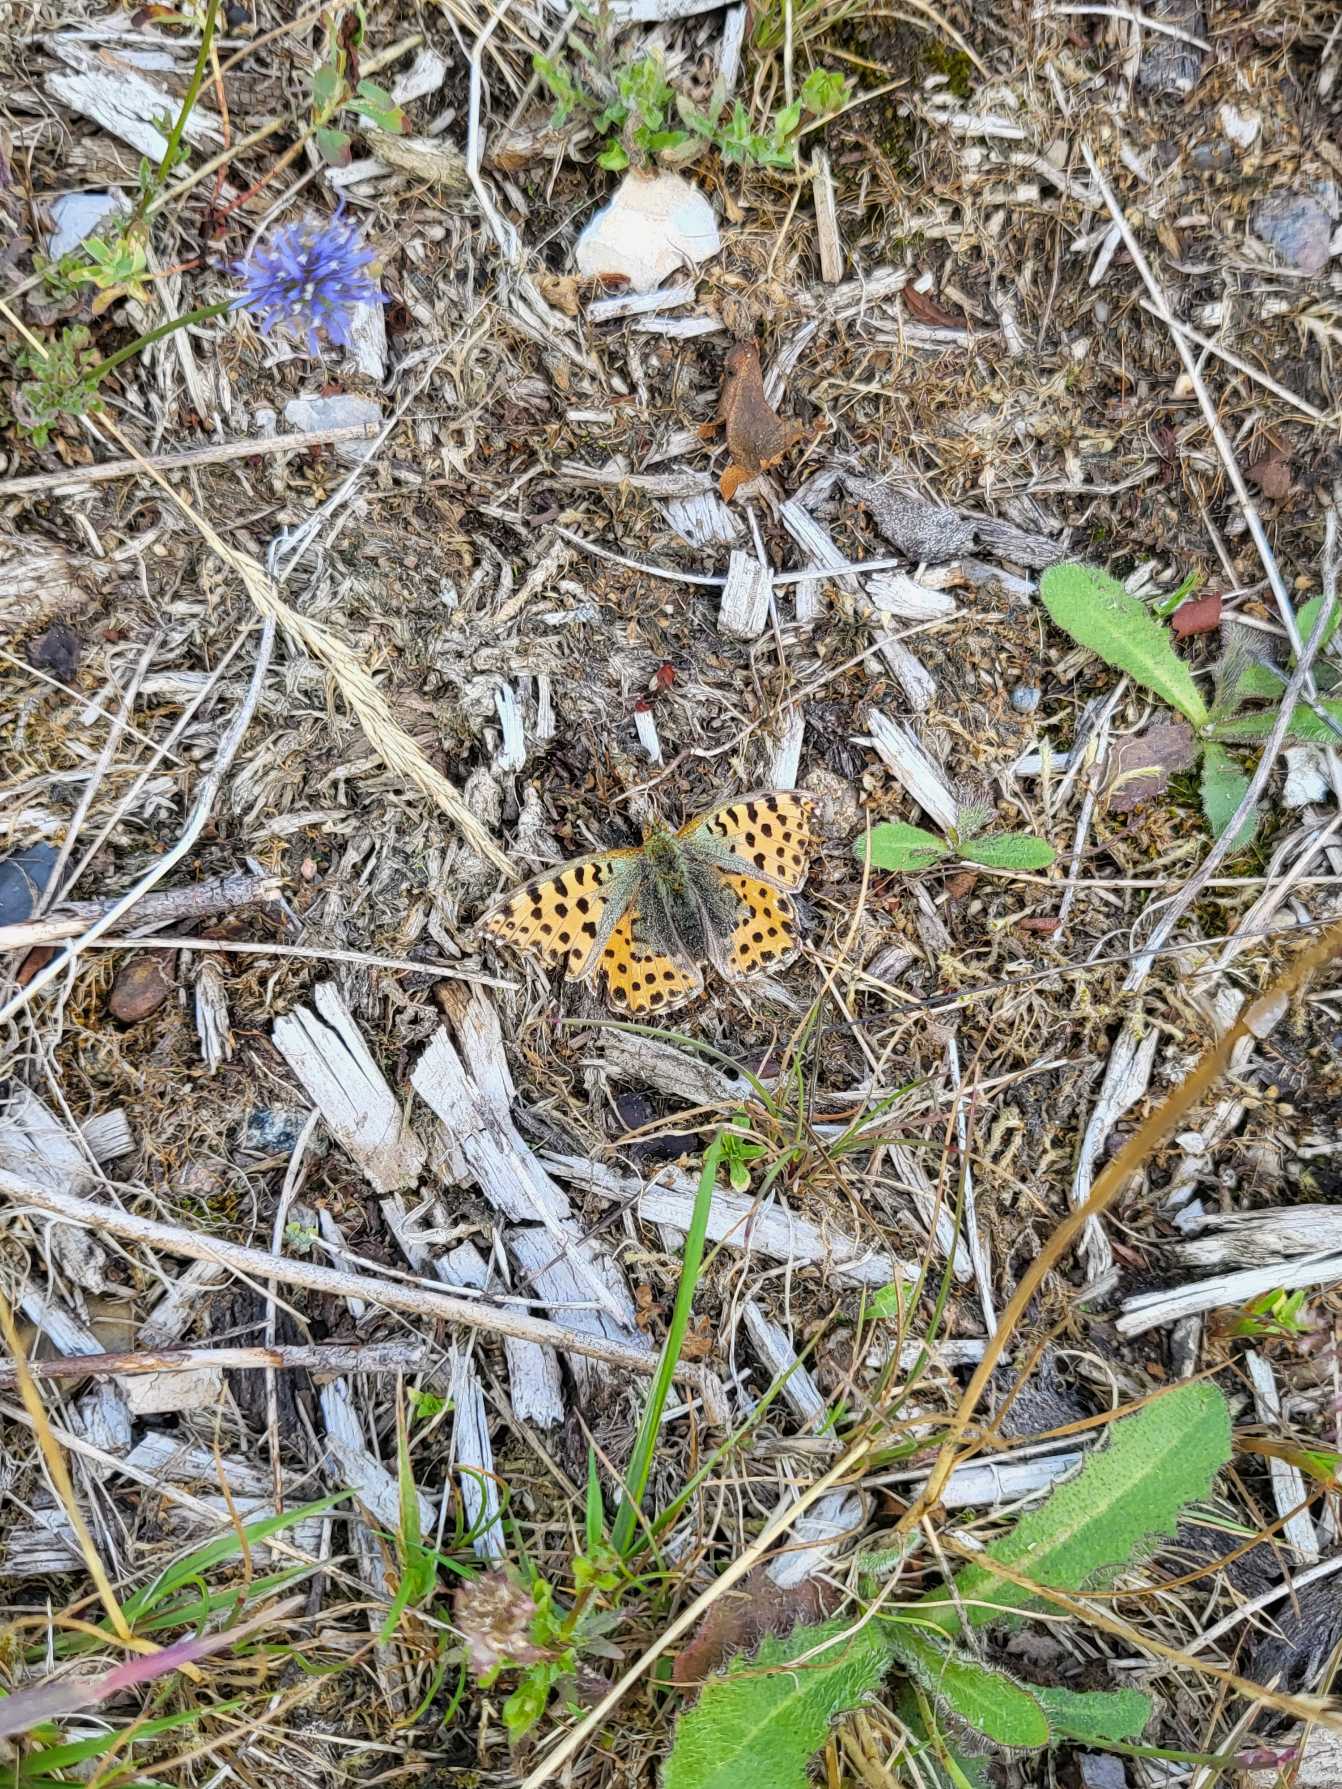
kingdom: Animalia
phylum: Arthropoda
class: Insecta
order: Lepidoptera
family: Nymphalidae
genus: Issoria
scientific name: Issoria lathonia
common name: Storplettet perlemorsommerfugl
